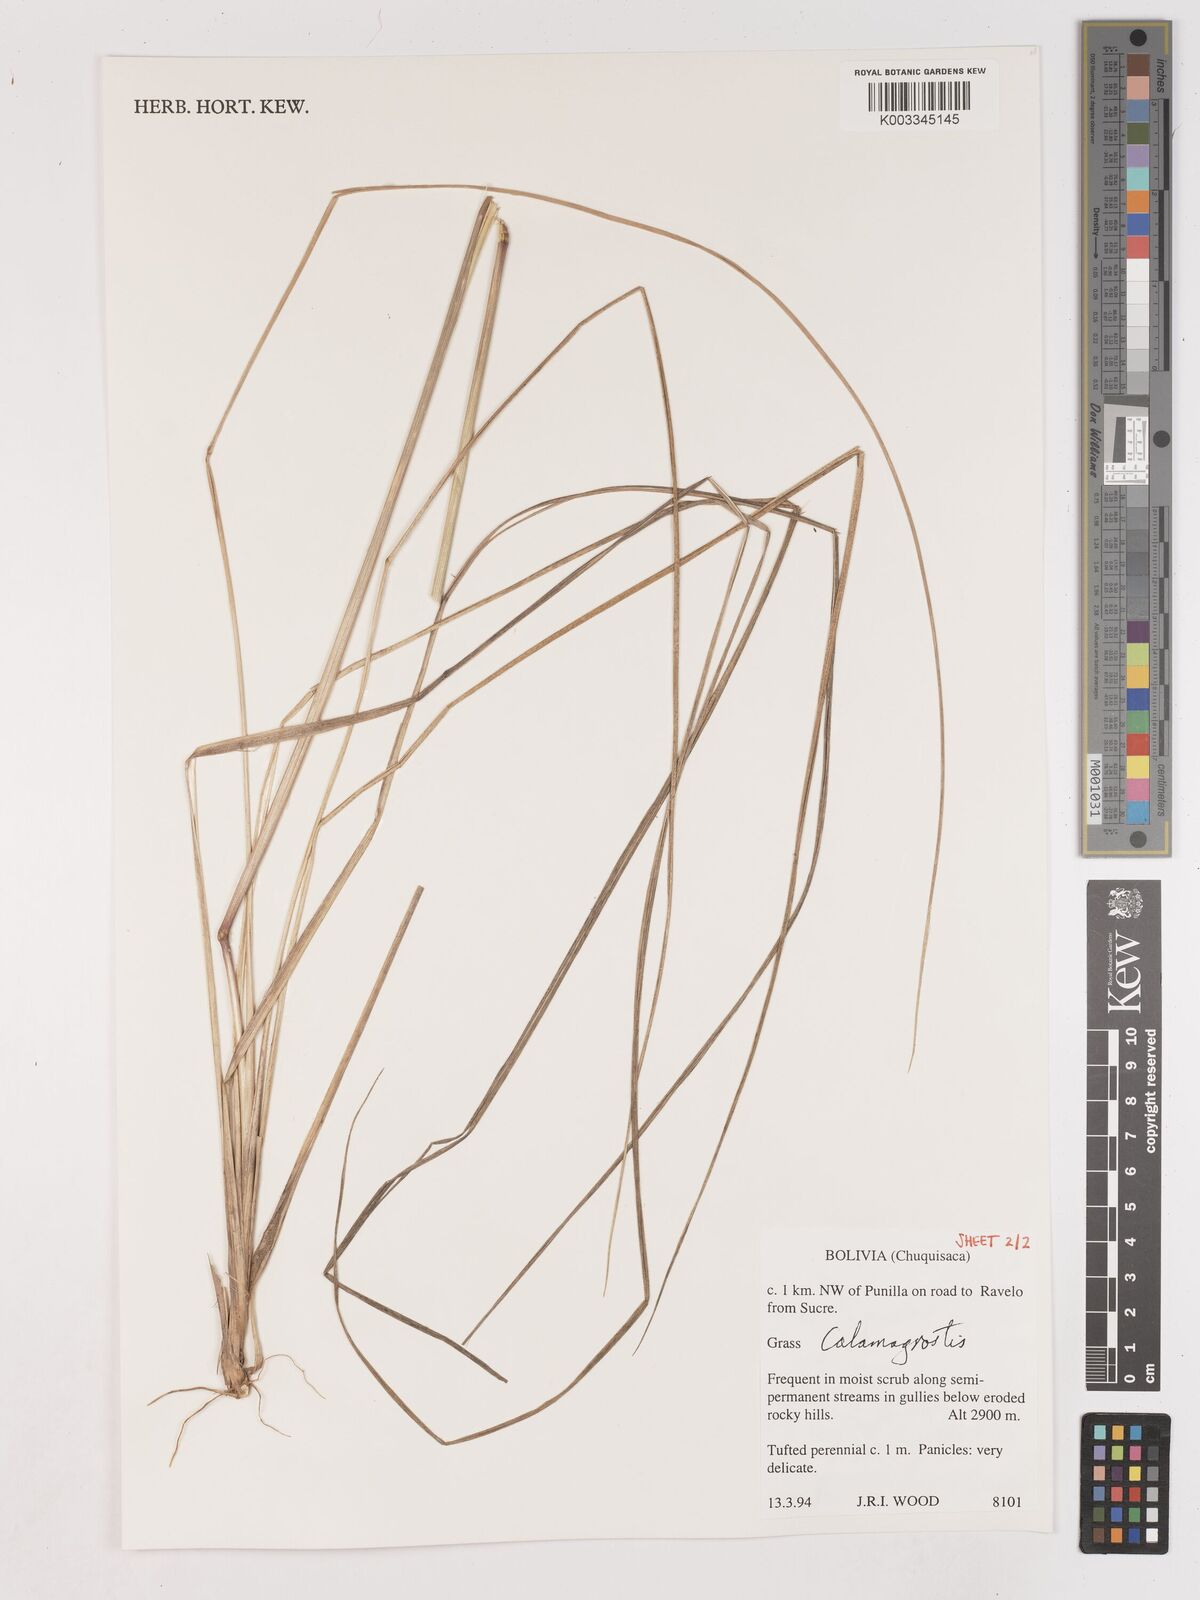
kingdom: Plantae
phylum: Tracheophyta
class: Liliopsida
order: Poales
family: Poaceae
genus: Calamagrostis
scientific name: Calamagrostis
